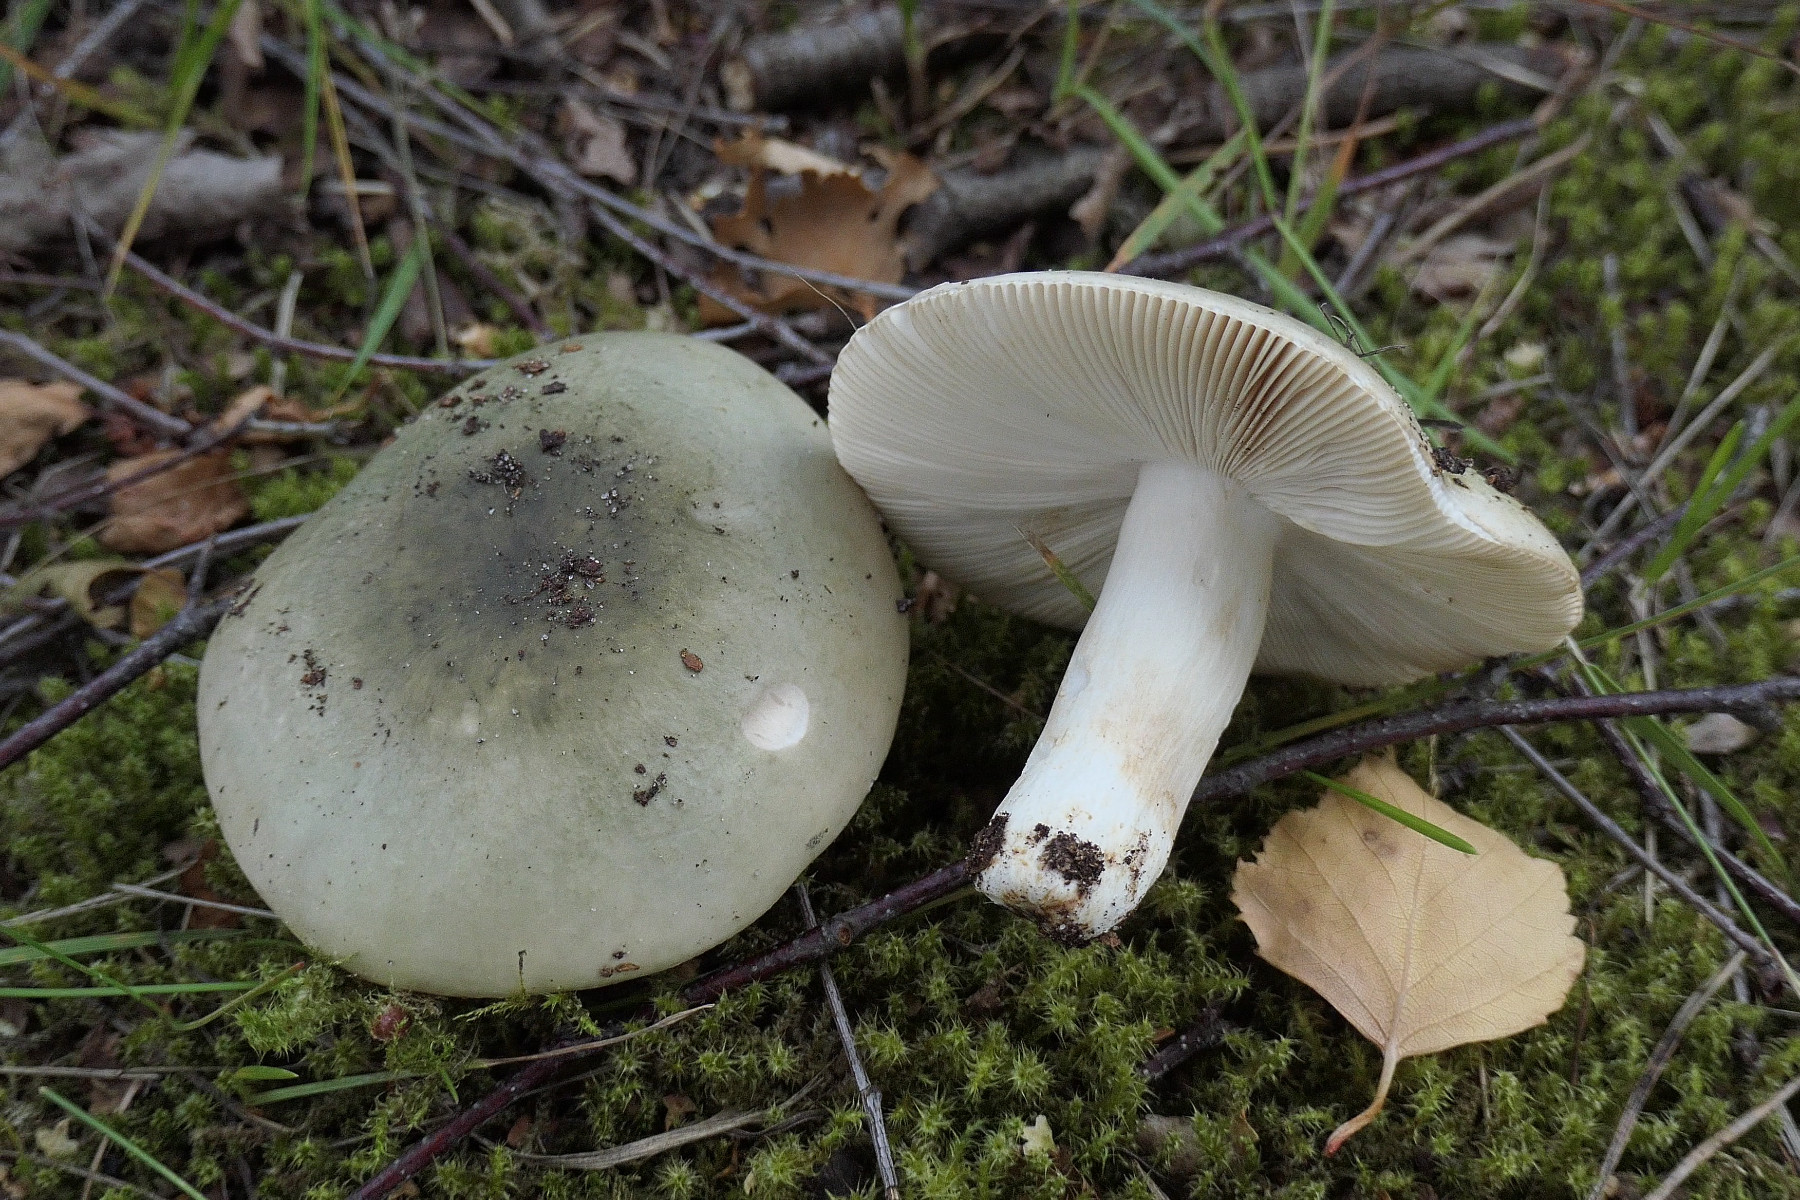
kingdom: Fungi
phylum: Basidiomycota
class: Agaricomycetes
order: Russulales
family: Russulaceae
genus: Russula
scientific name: Russula aeruginea
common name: græsgrøn skørhat
